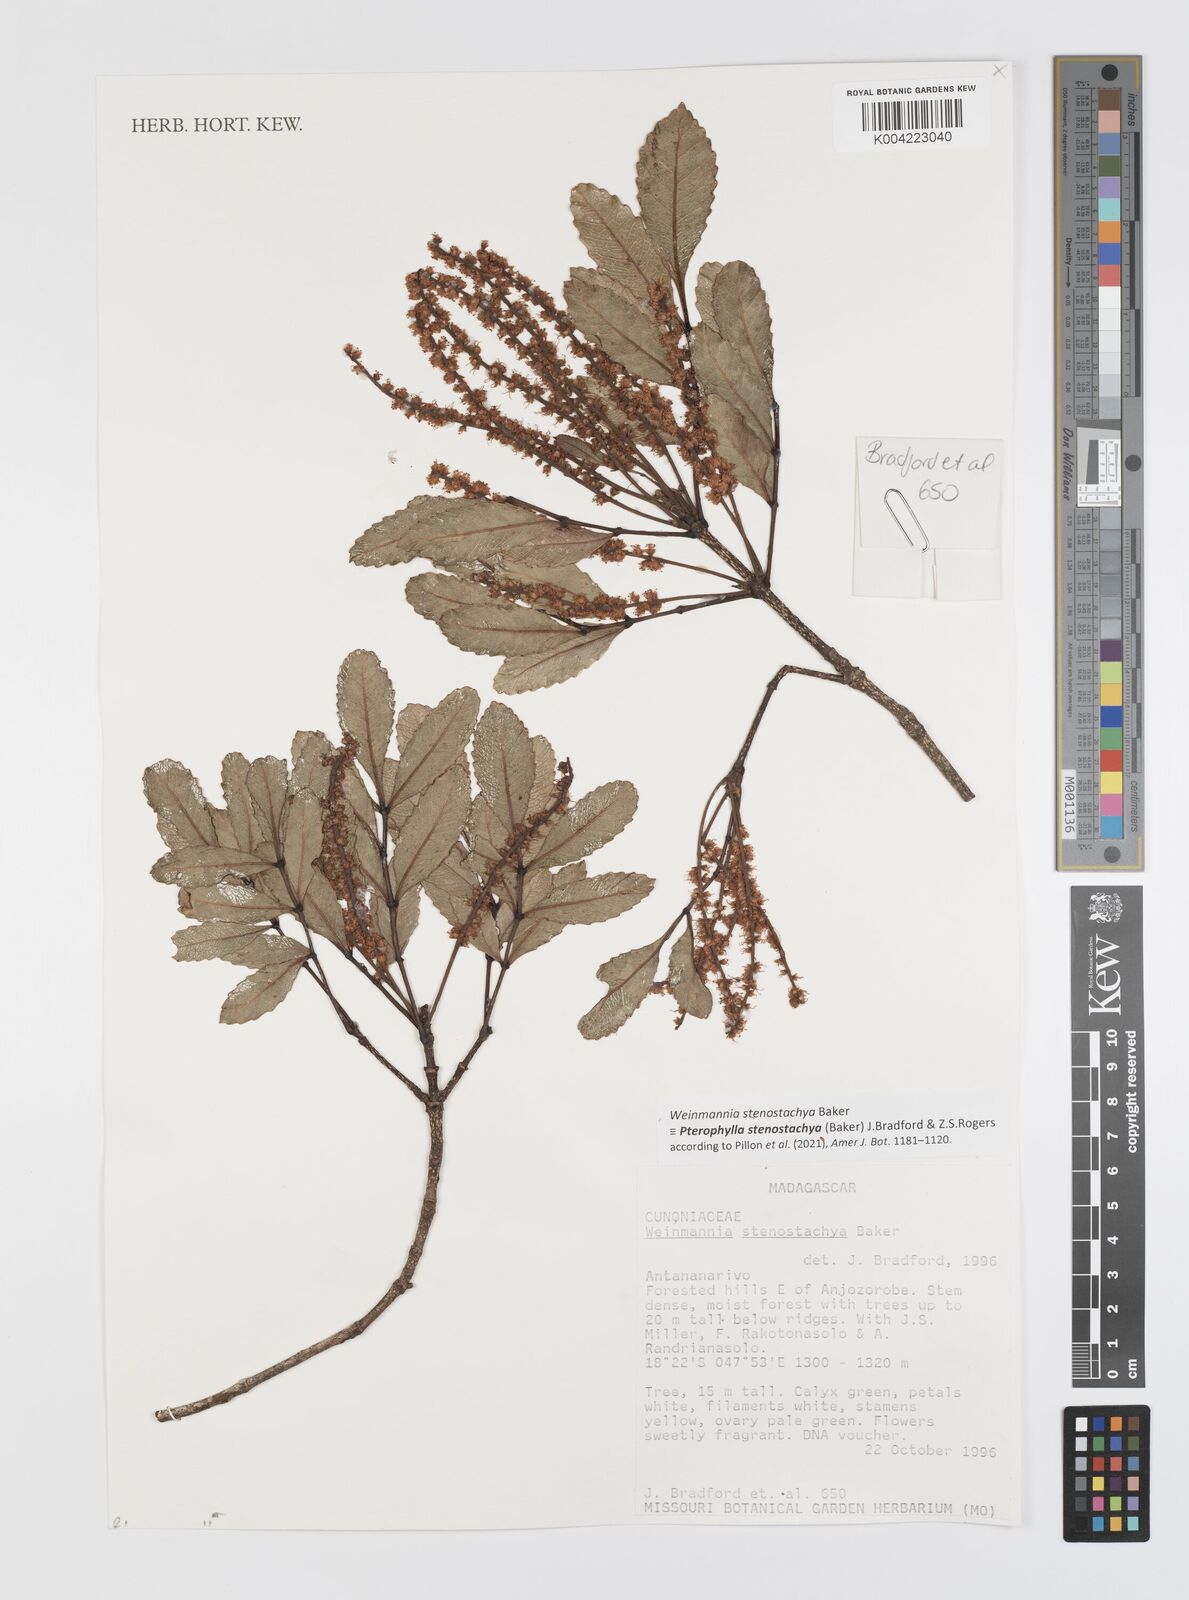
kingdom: Plantae
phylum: Tracheophyta
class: Magnoliopsida
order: Oxalidales
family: Cunoniaceae
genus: Pterophylla
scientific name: Pterophylla stenostachya
